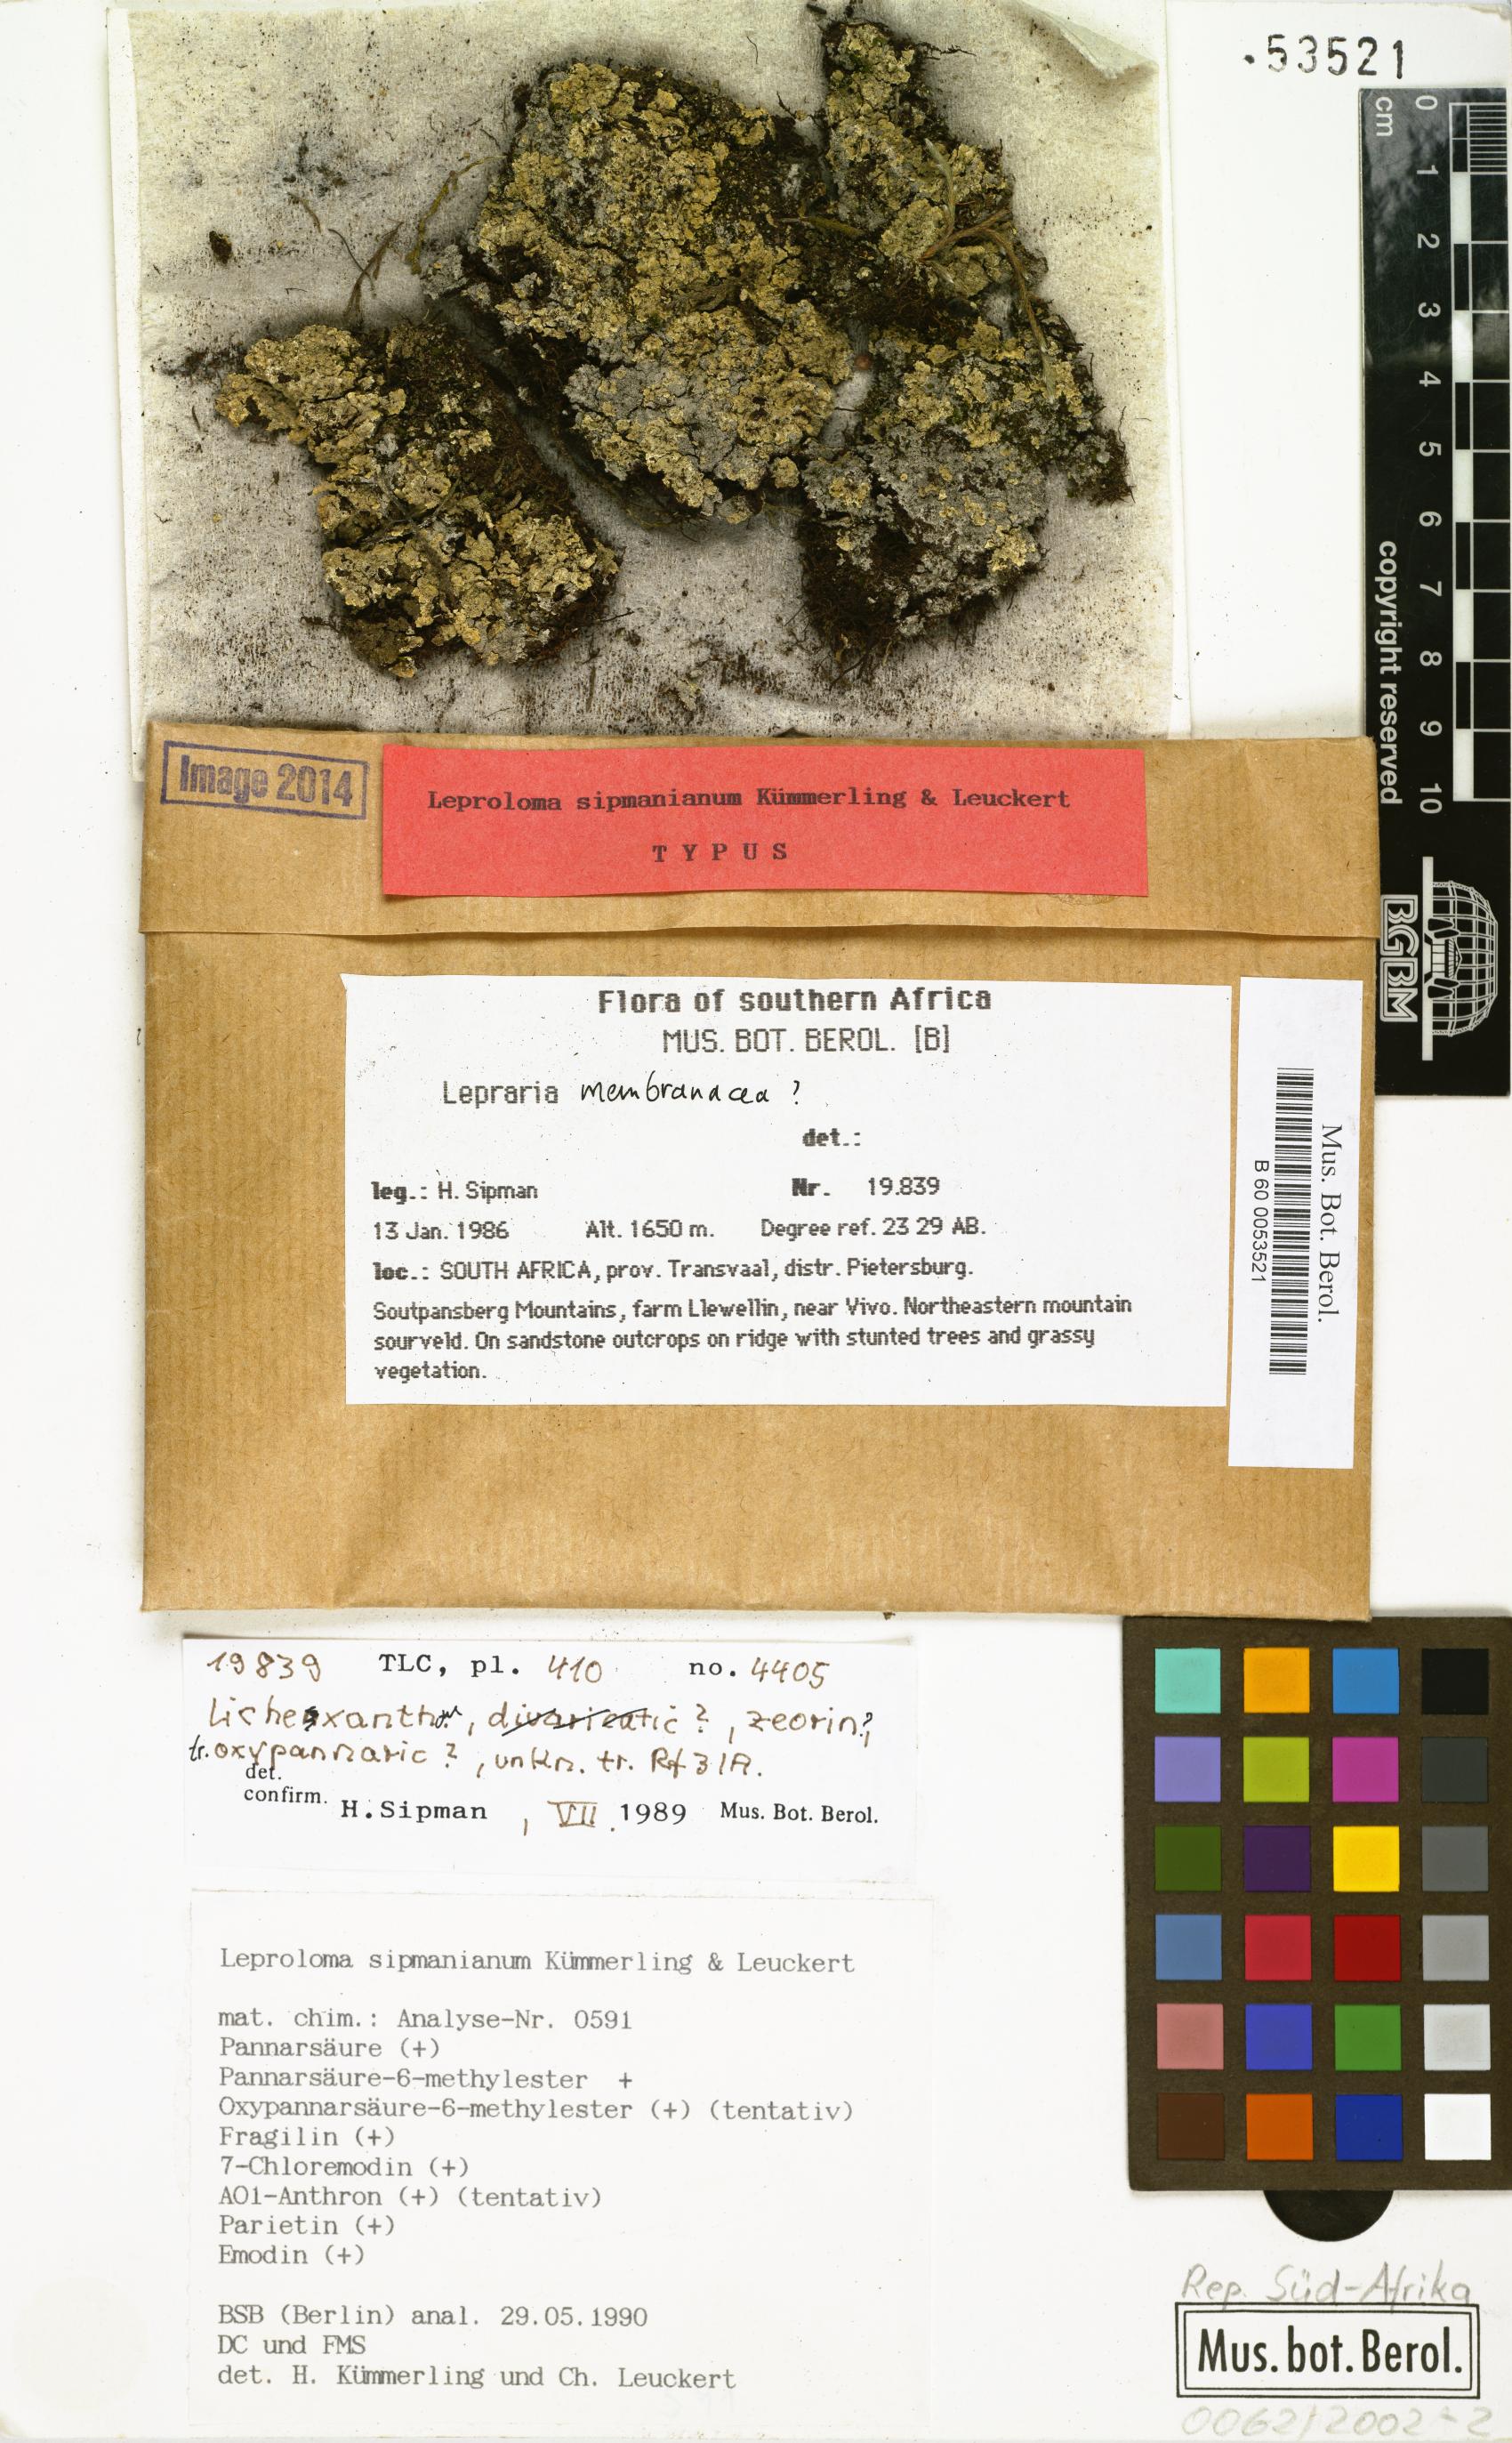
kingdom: Fungi
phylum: Ascomycota
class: Lecanoromycetes
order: Lecanorales
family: Stereocaulaceae
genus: Lepraria
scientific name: Lepraria sipmaniana
